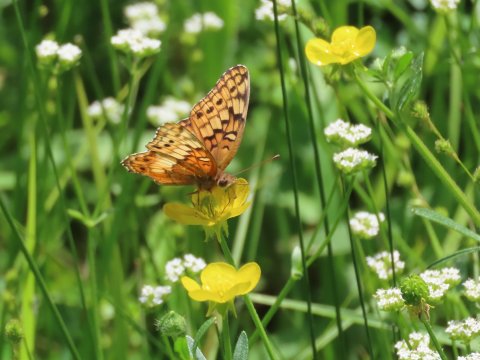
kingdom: Animalia
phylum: Arthropoda
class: Insecta
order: Lepidoptera
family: Nymphalidae
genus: Euptoieta
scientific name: Euptoieta claudia
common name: Variegated Fritillary
